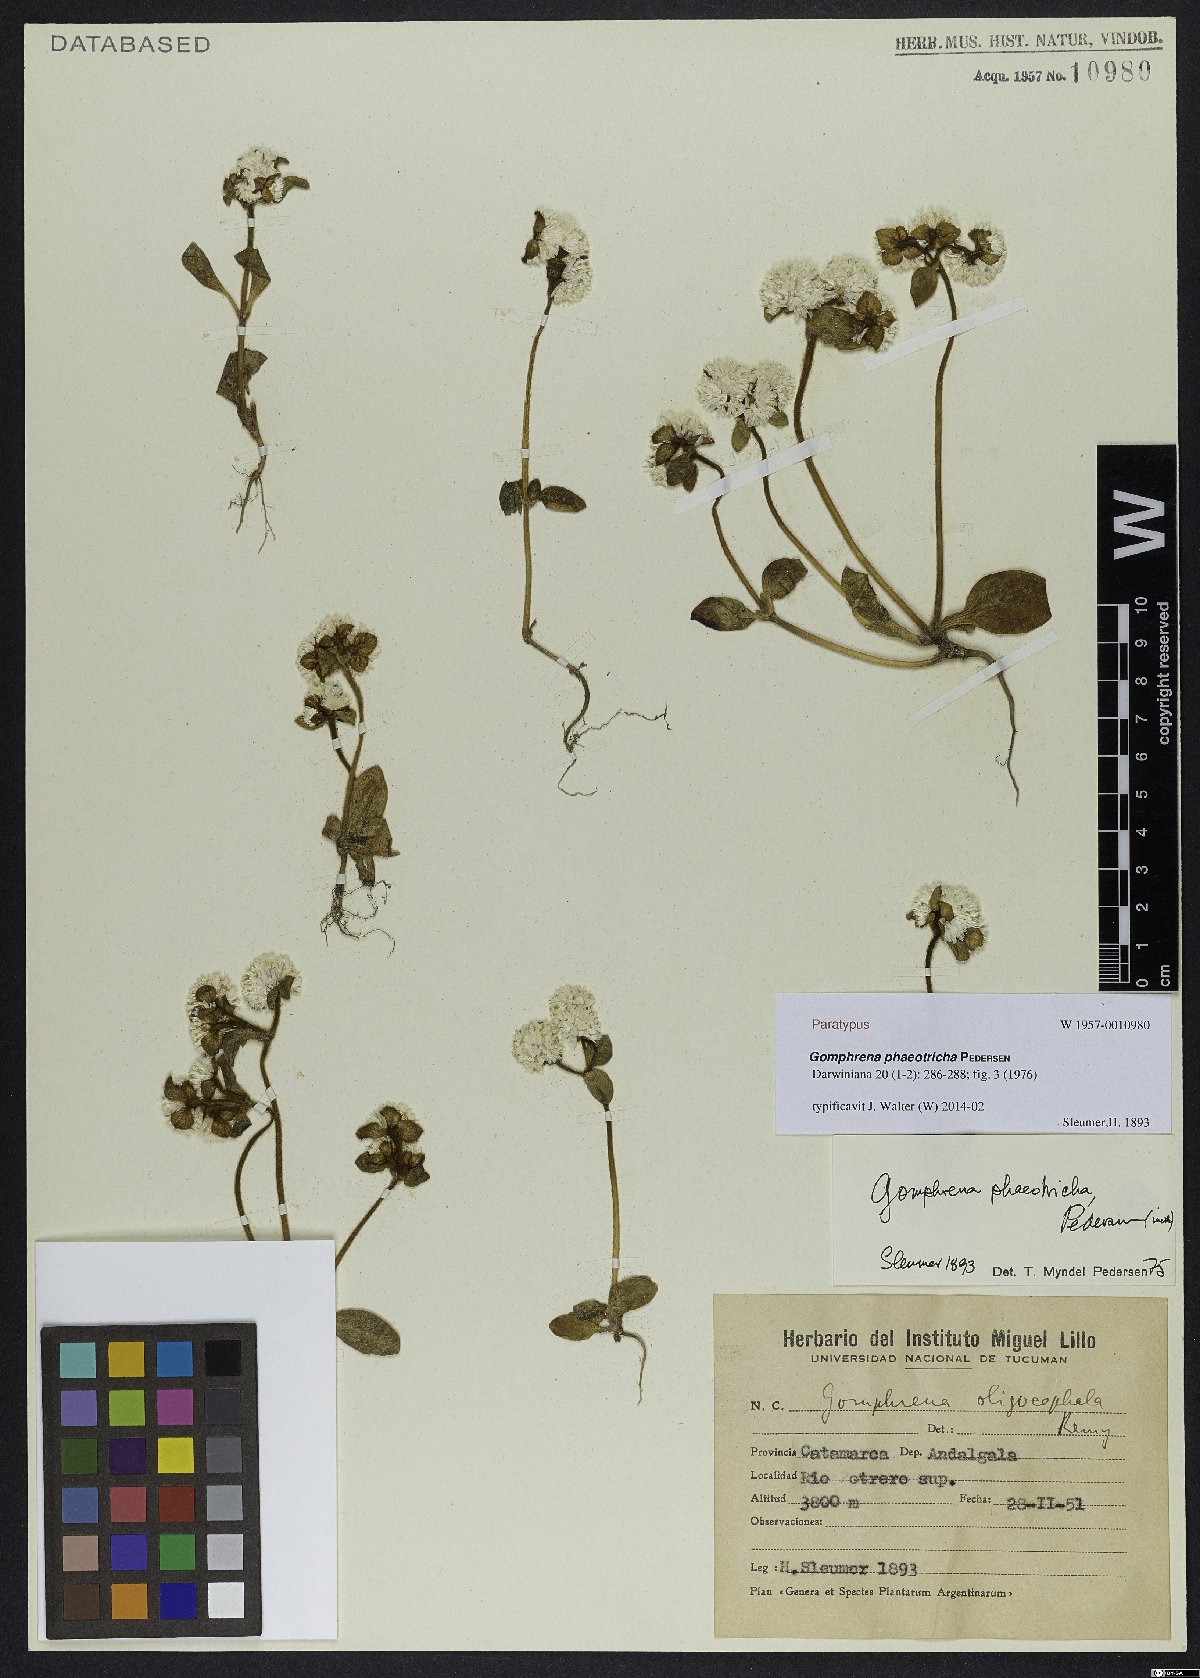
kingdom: Plantae
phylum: Tracheophyta
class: Magnoliopsida
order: Caryophyllales
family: Amaranthaceae
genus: Gomphrena
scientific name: Gomphrena phaeotricha
